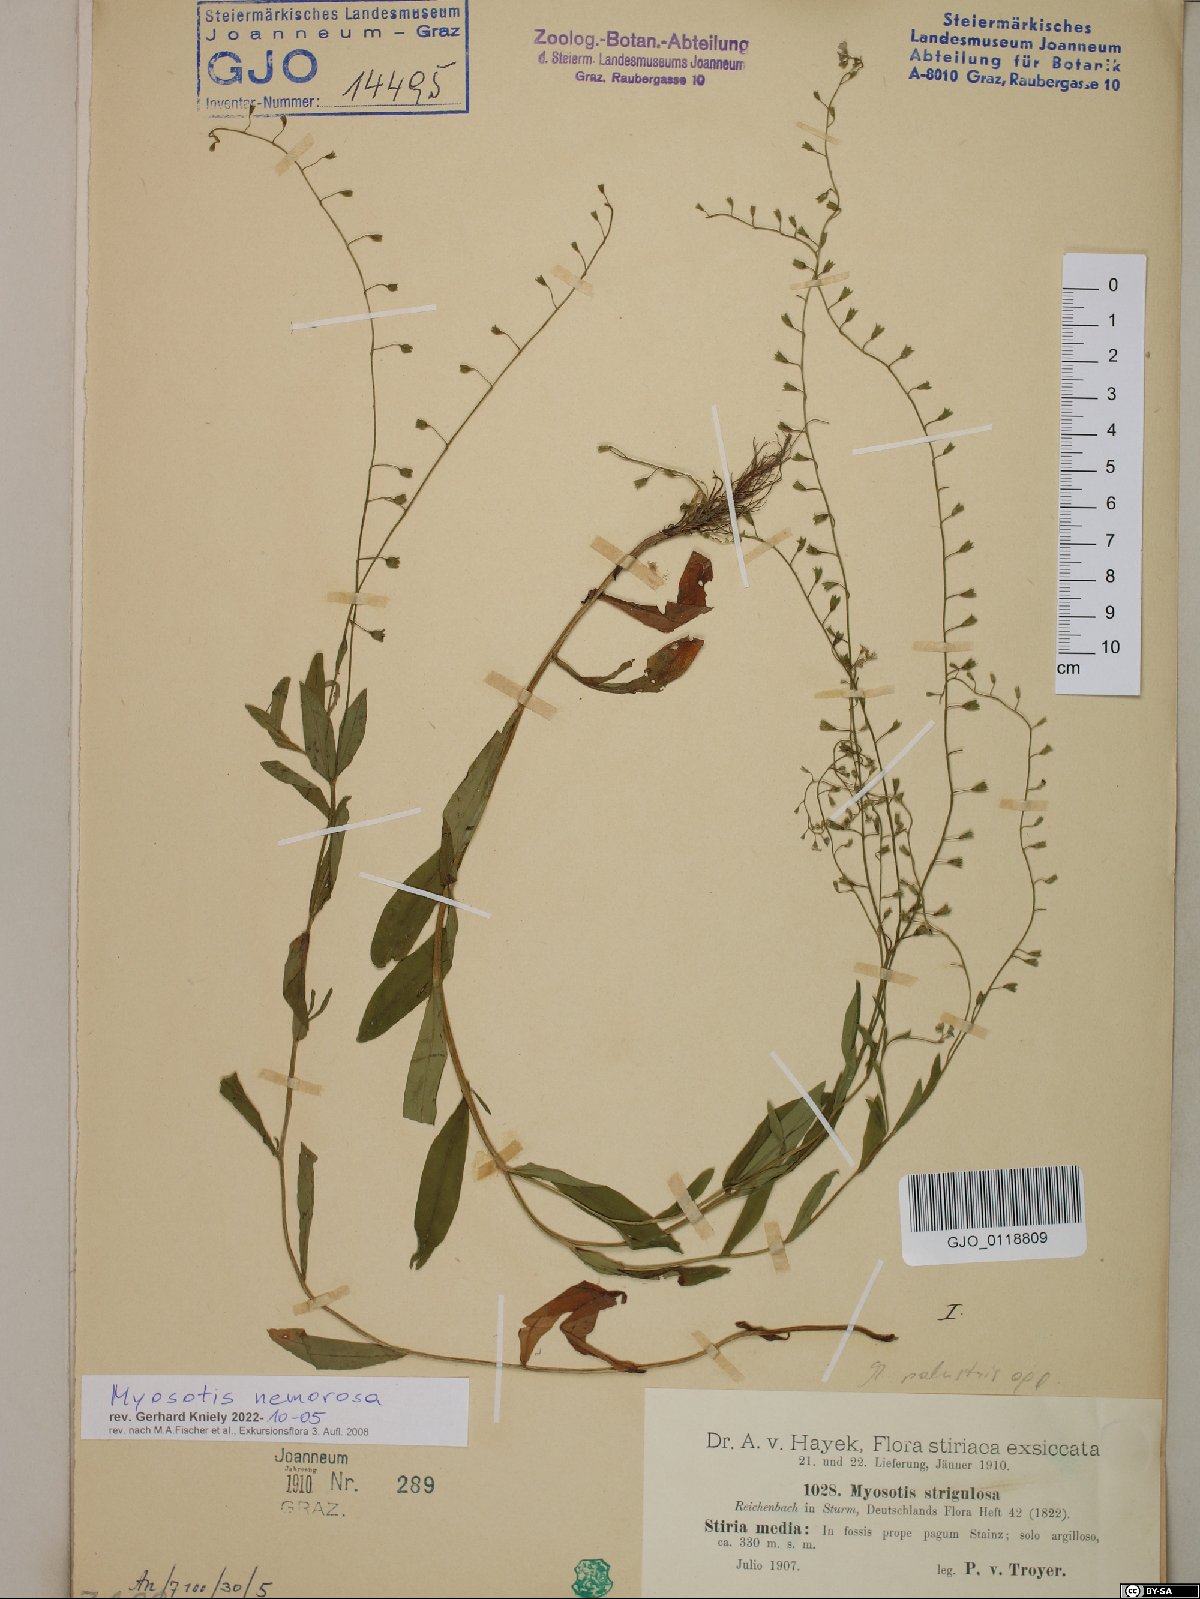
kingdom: Plantae
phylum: Tracheophyta
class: Magnoliopsida
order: Boraginales
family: Boraginaceae
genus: Myosotis
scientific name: Myosotis nemorosa
